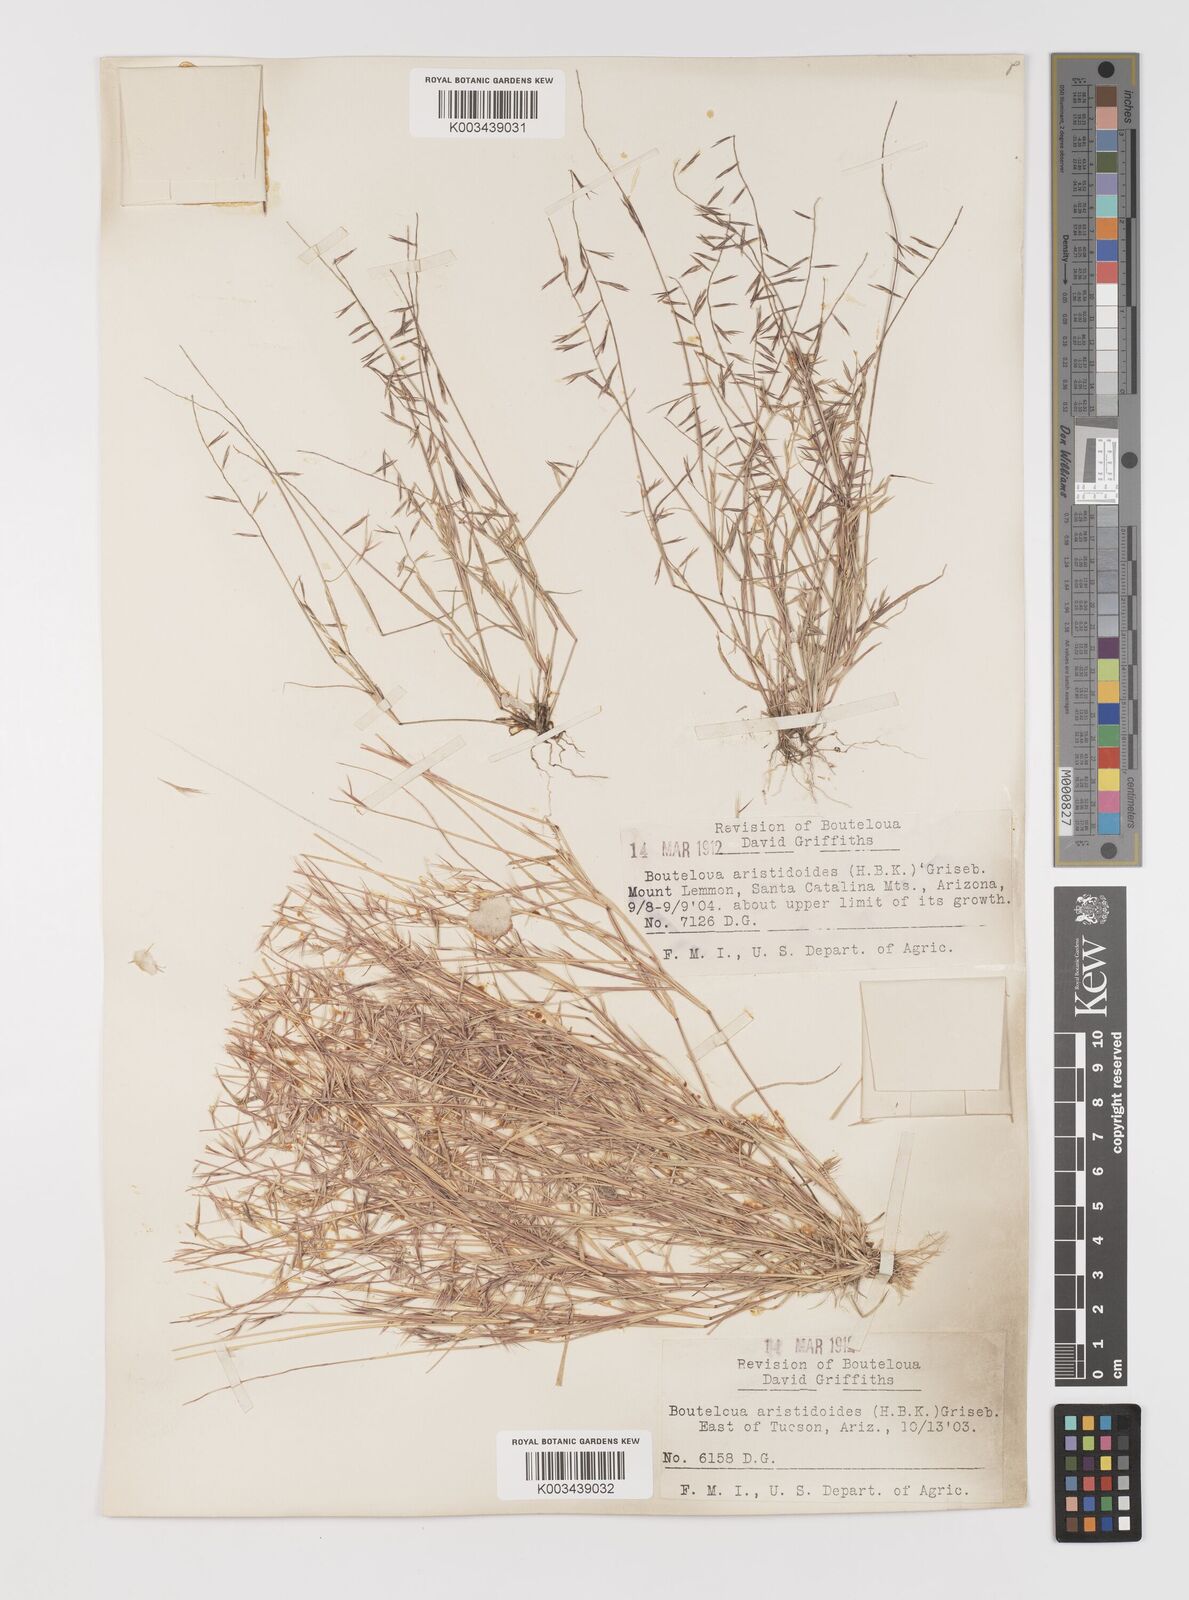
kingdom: Plantae
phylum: Tracheophyta
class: Liliopsida
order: Poales
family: Poaceae
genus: Bouteloua
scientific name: Bouteloua aristidoides
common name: Needle grama
